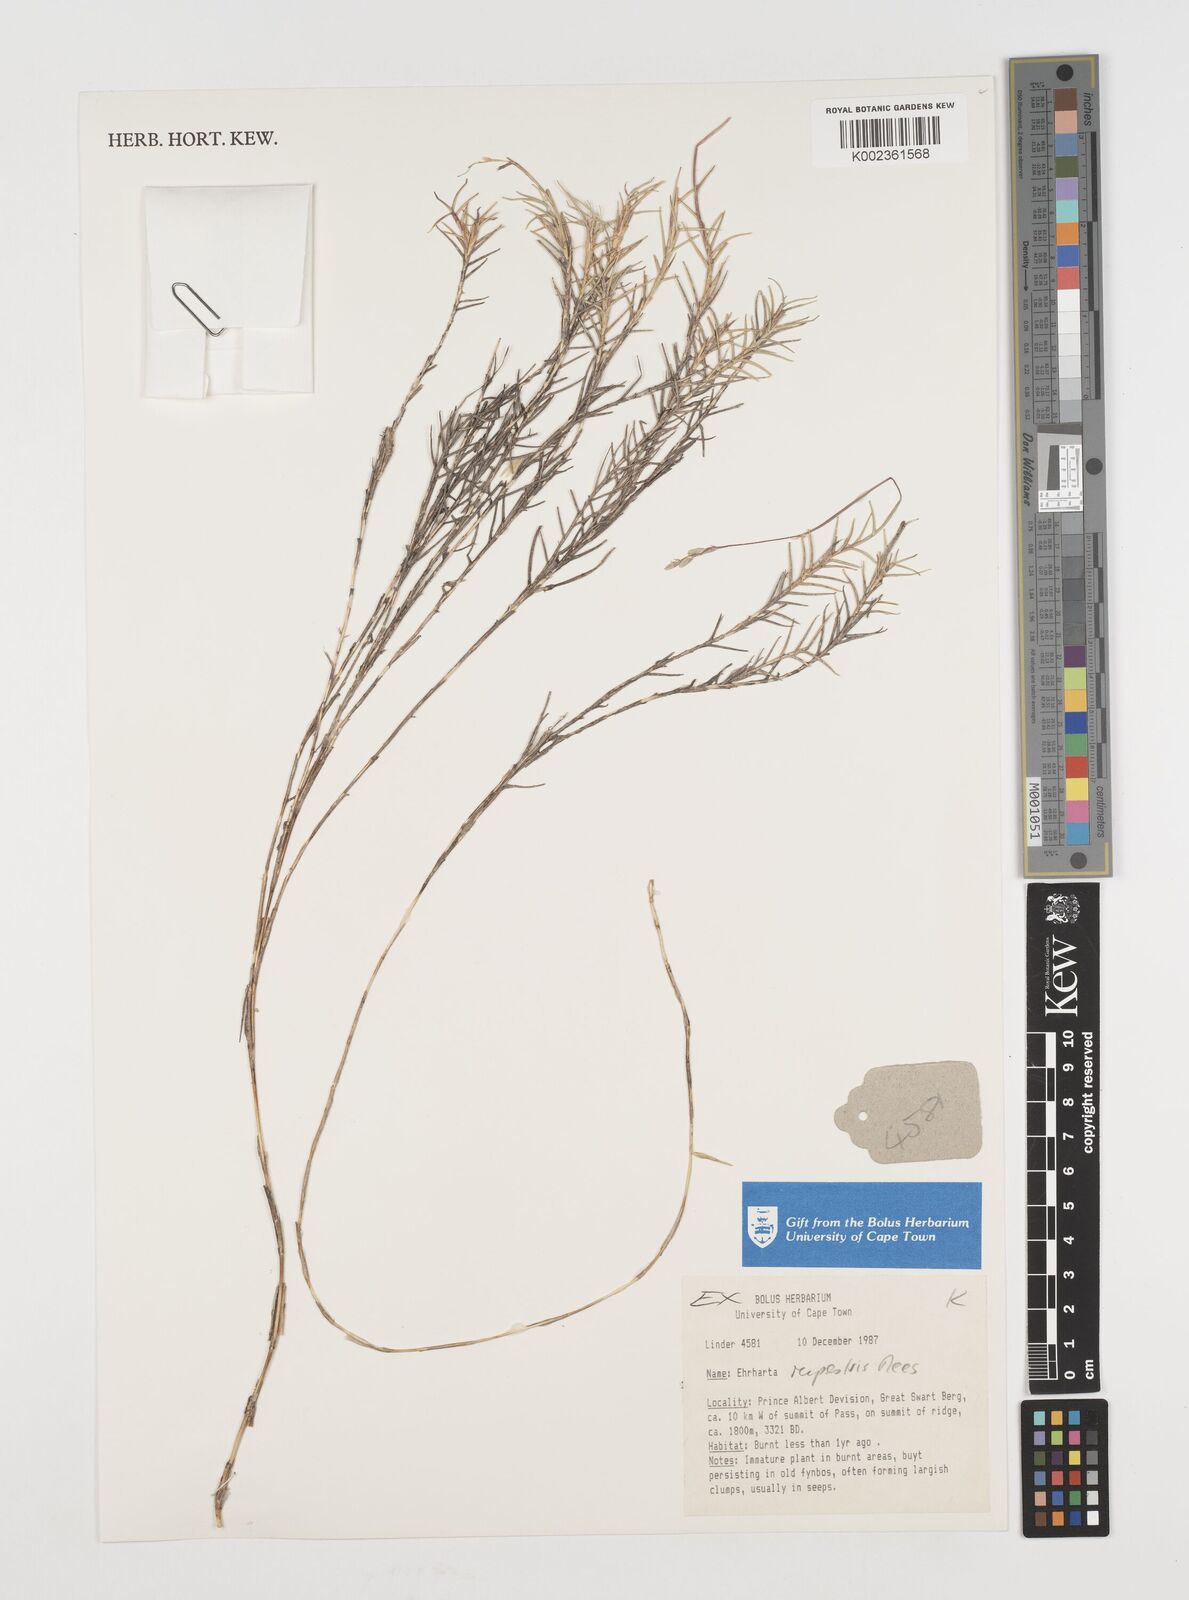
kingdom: Plantae
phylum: Tracheophyta
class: Liliopsida
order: Poales
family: Poaceae
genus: Ehrharta
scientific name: Ehrharta rupestris
